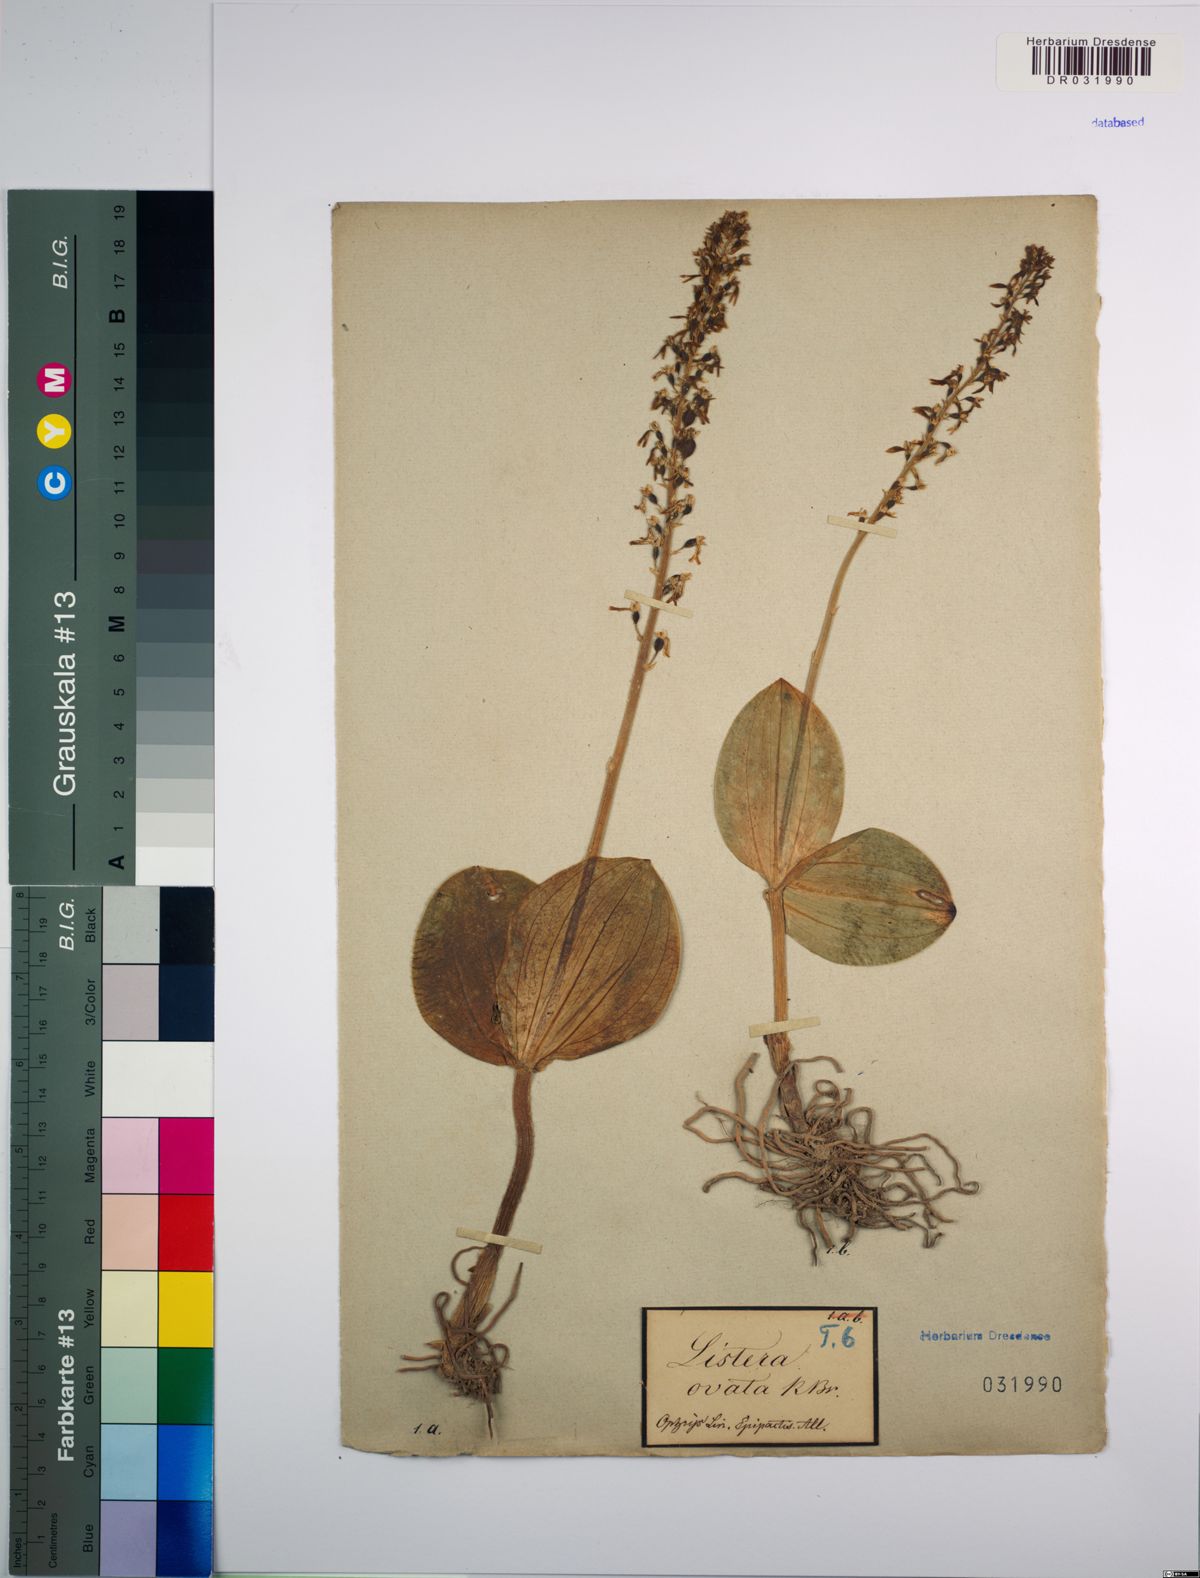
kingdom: Plantae
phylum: Tracheophyta
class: Liliopsida
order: Asparagales
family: Orchidaceae
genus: Neottia
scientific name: Neottia ovata
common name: Common twayblade
